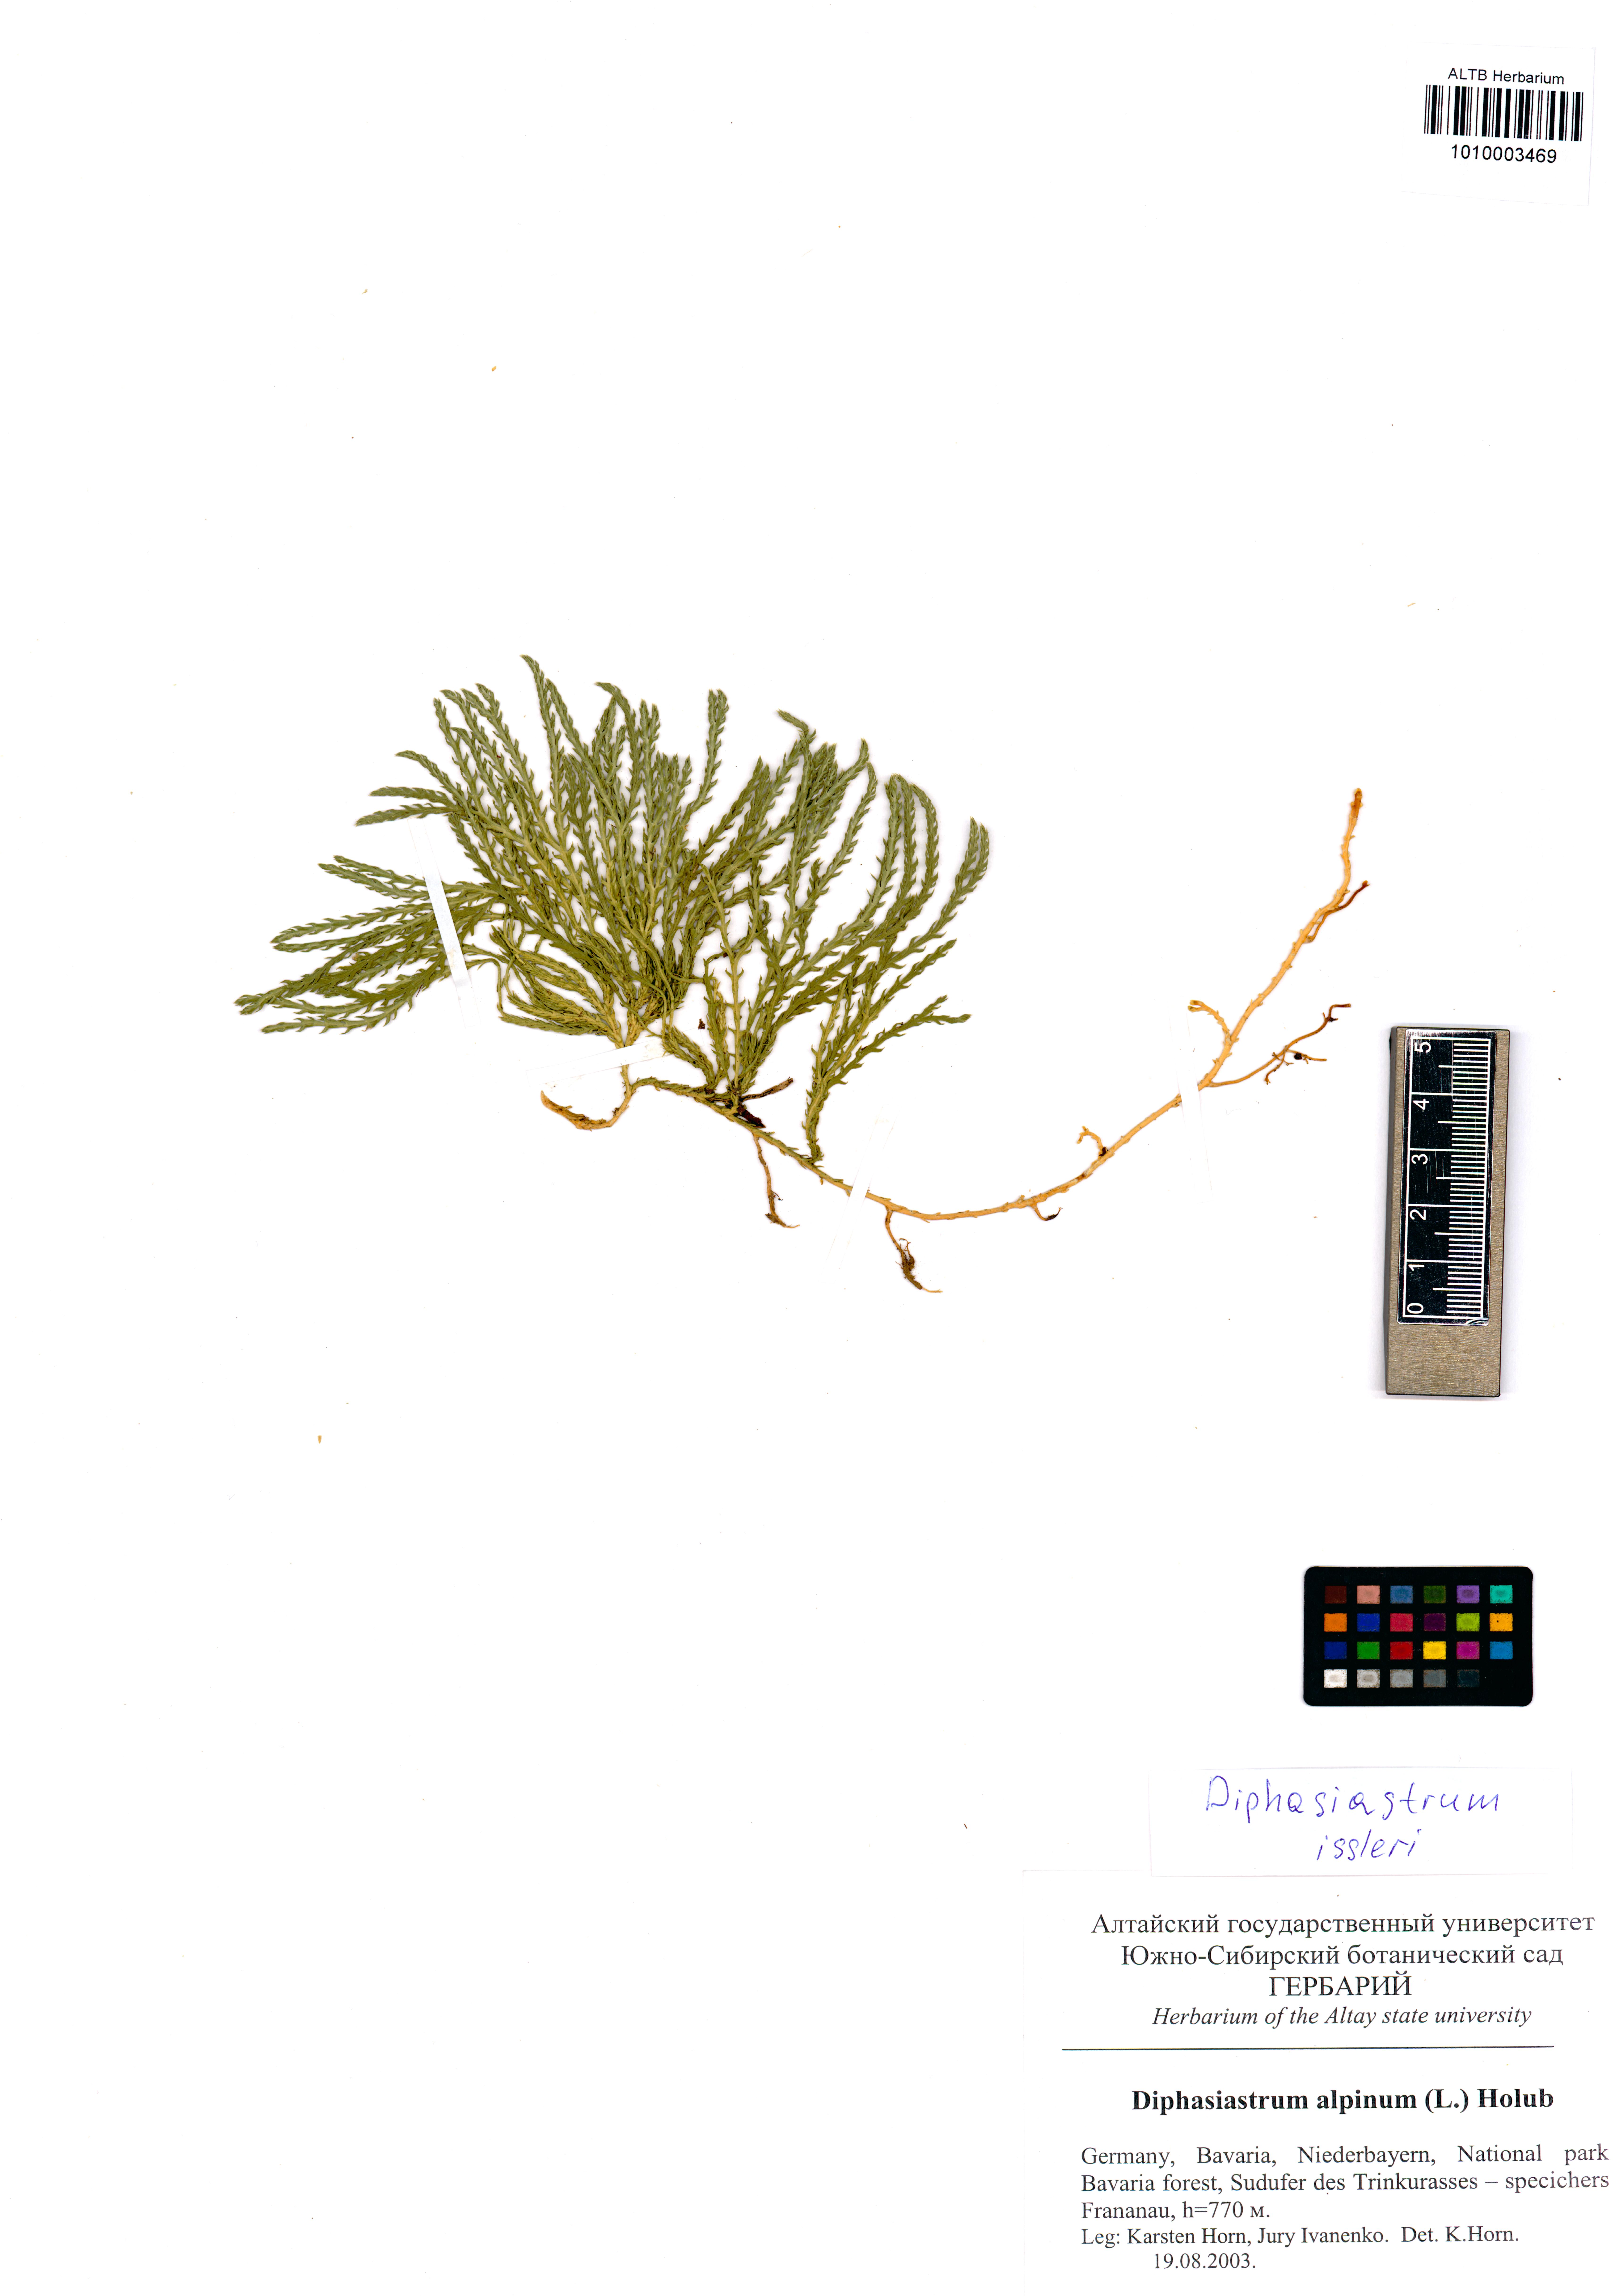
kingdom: Plantae
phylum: Tracheophyta
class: Lycopodiopsida
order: Lycopodiales
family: Lycopodiaceae
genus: Diphasiastrum
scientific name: Diphasiastrum issleri
